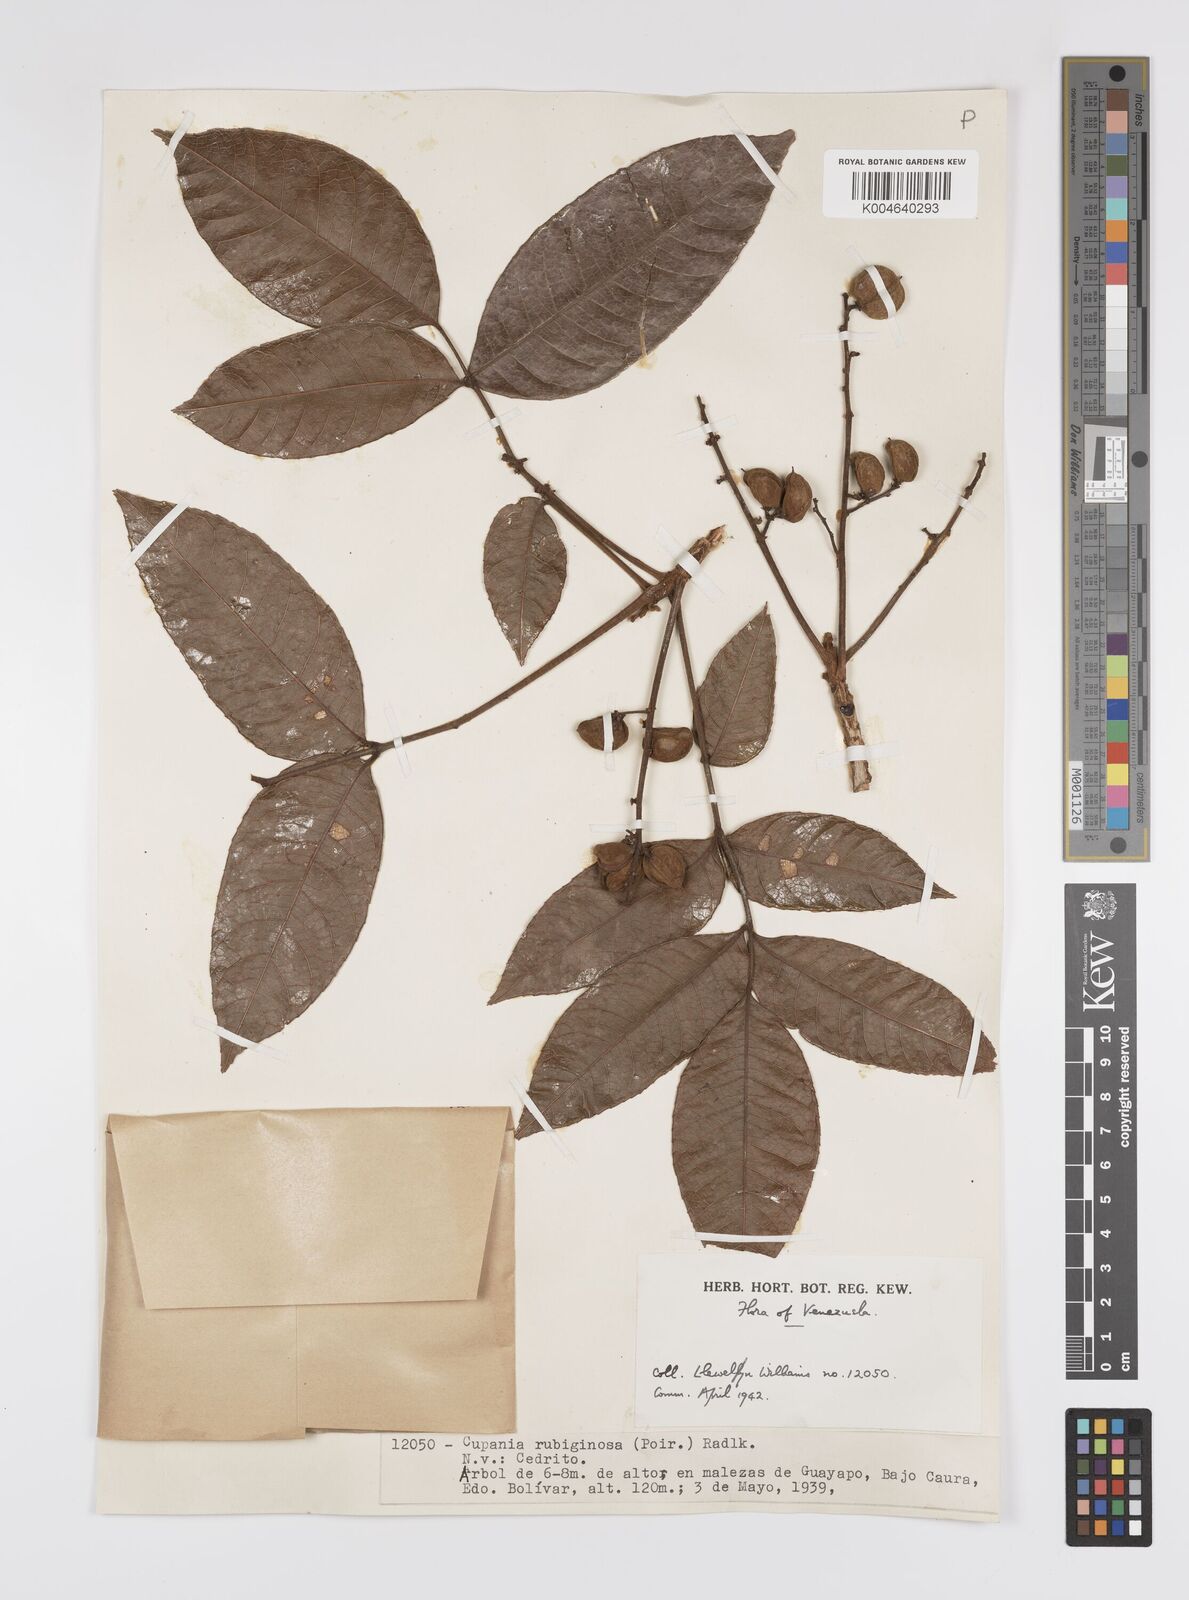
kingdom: Plantae
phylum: Tracheophyta
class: Magnoliopsida
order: Sapindales
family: Sapindaceae
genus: Cupania
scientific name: Cupania
